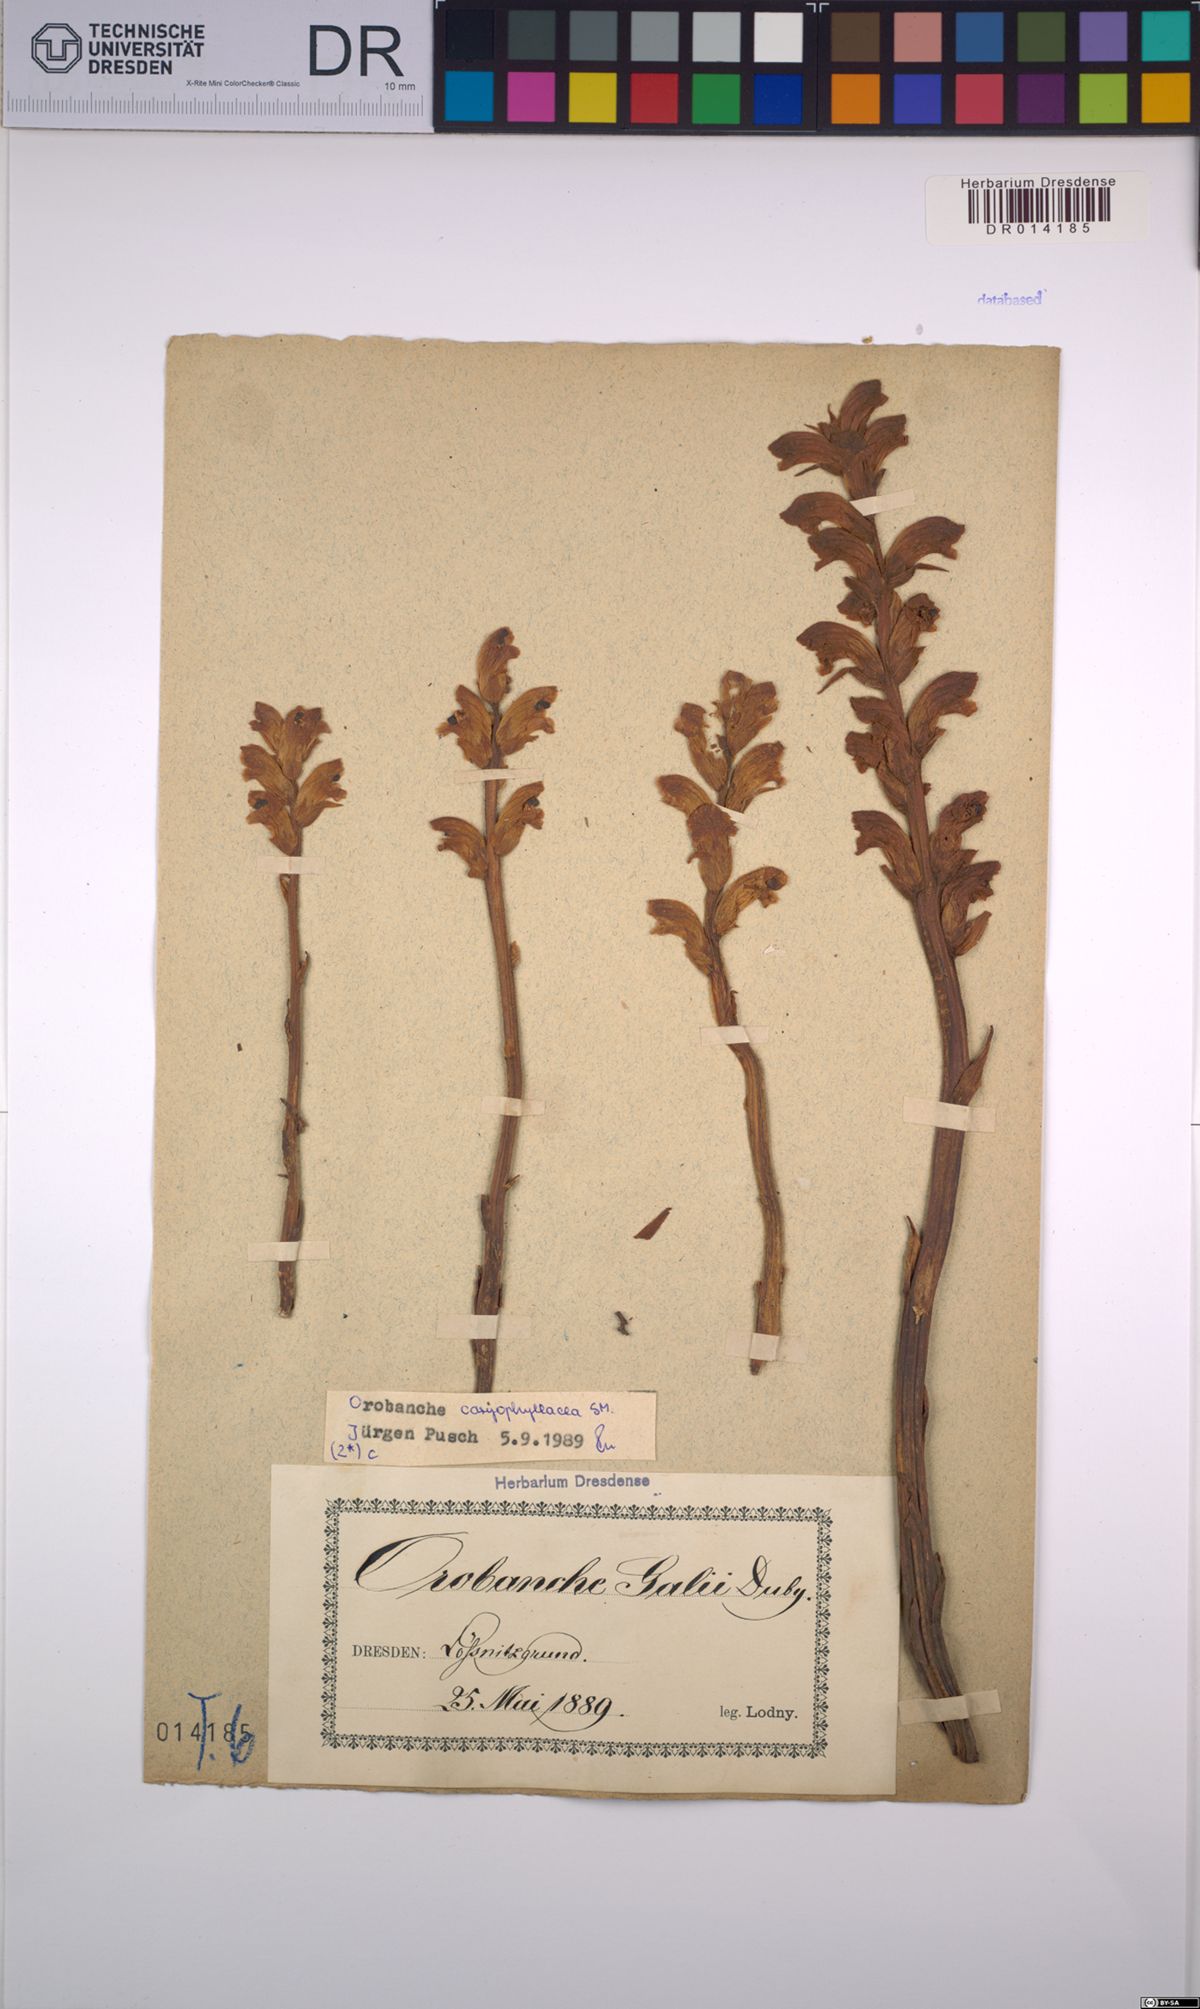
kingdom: Plantae
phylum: Tracheophyta
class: Magnoliopsida
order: Lamiales
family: Orobanchaceae
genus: Orobanche
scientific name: Orobanche caryophyllacea
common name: Bedstraw broomrape
